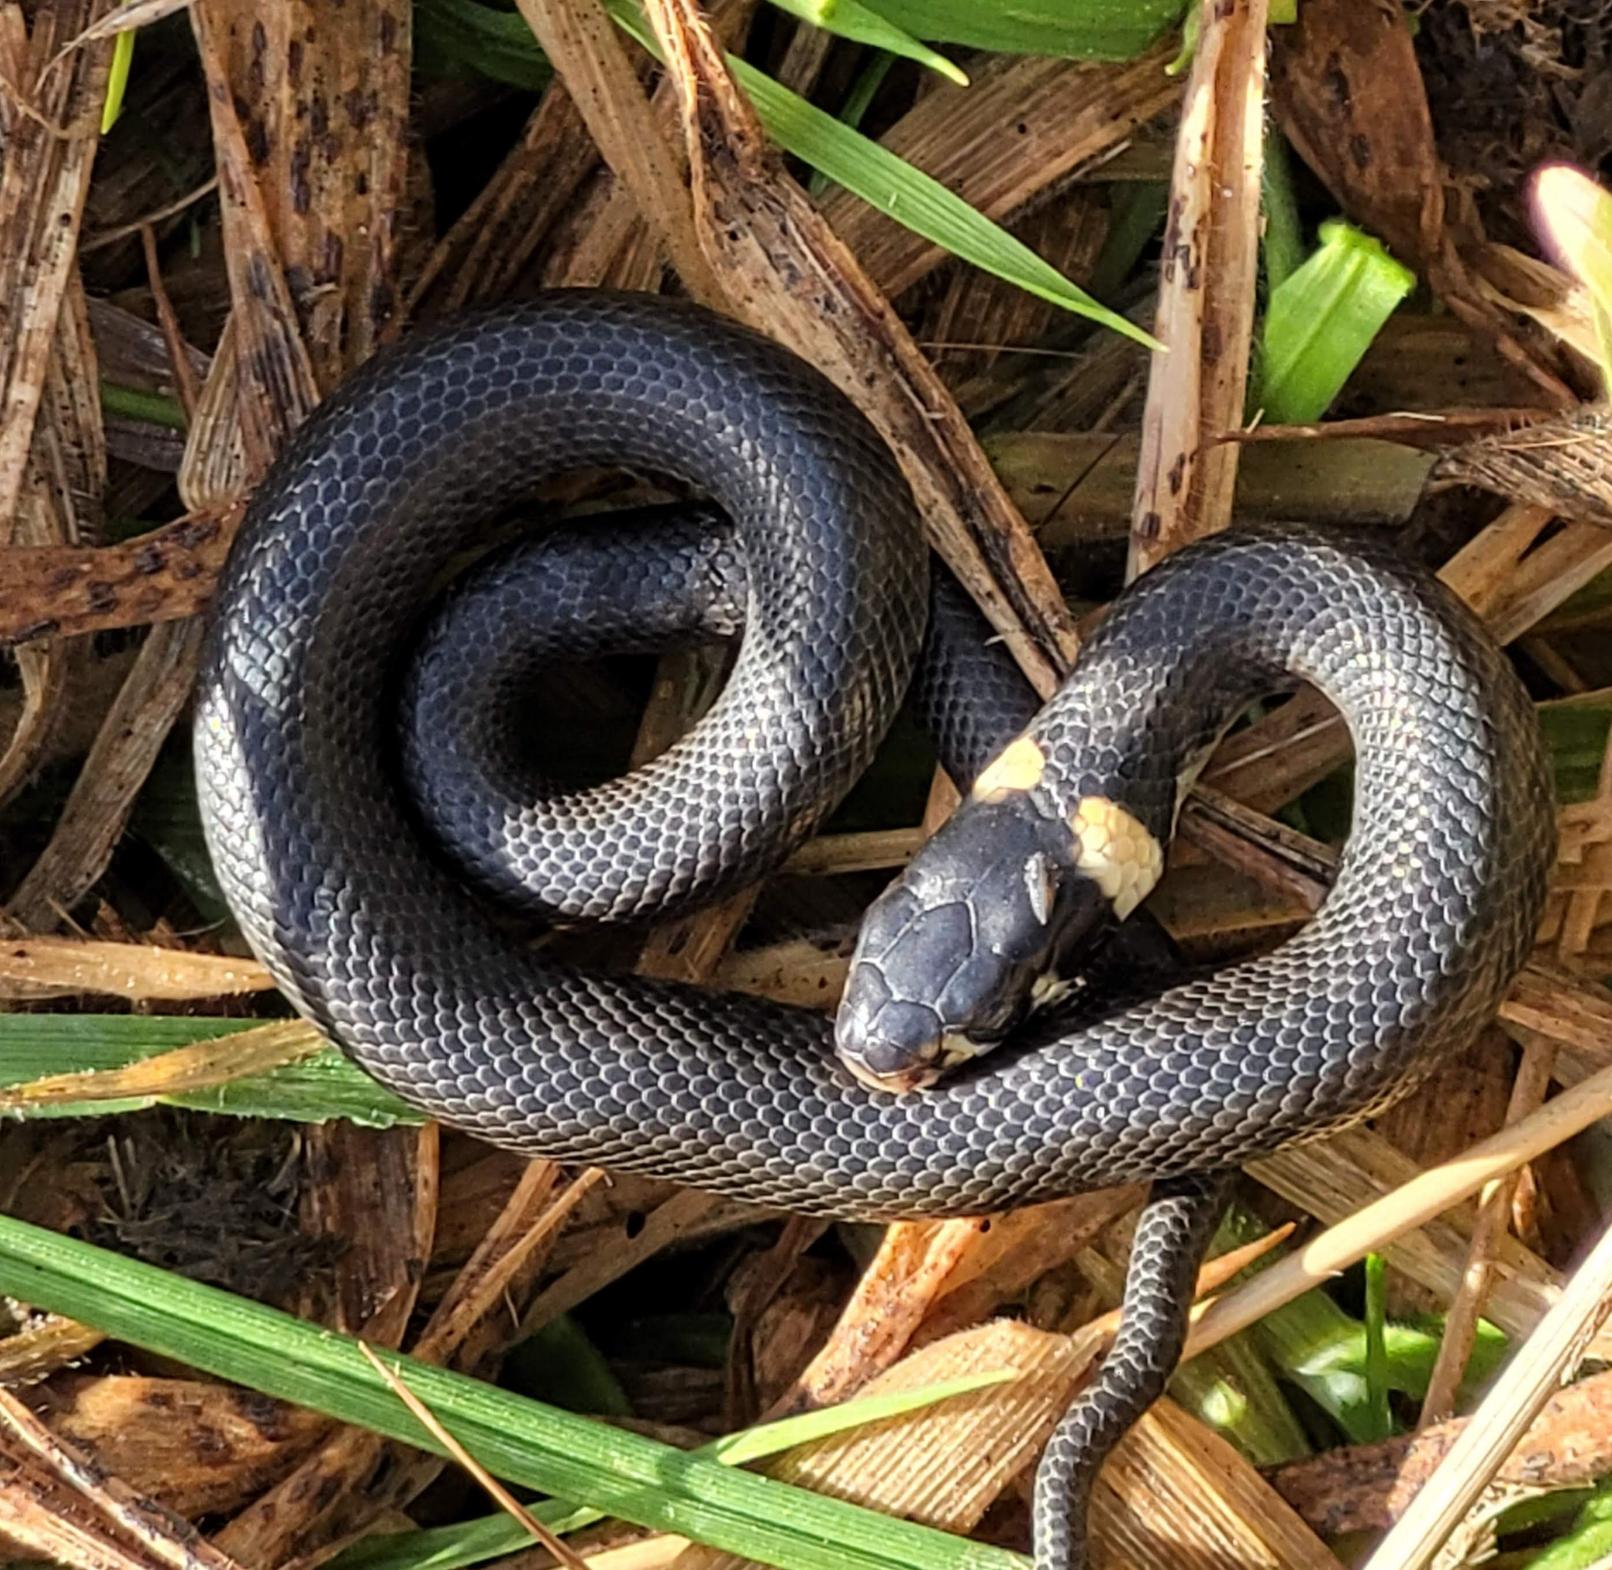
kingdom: Animalia
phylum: Chordata
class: Squamata
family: Colubridae
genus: Natrix
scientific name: Natrix natrix
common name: Snog
